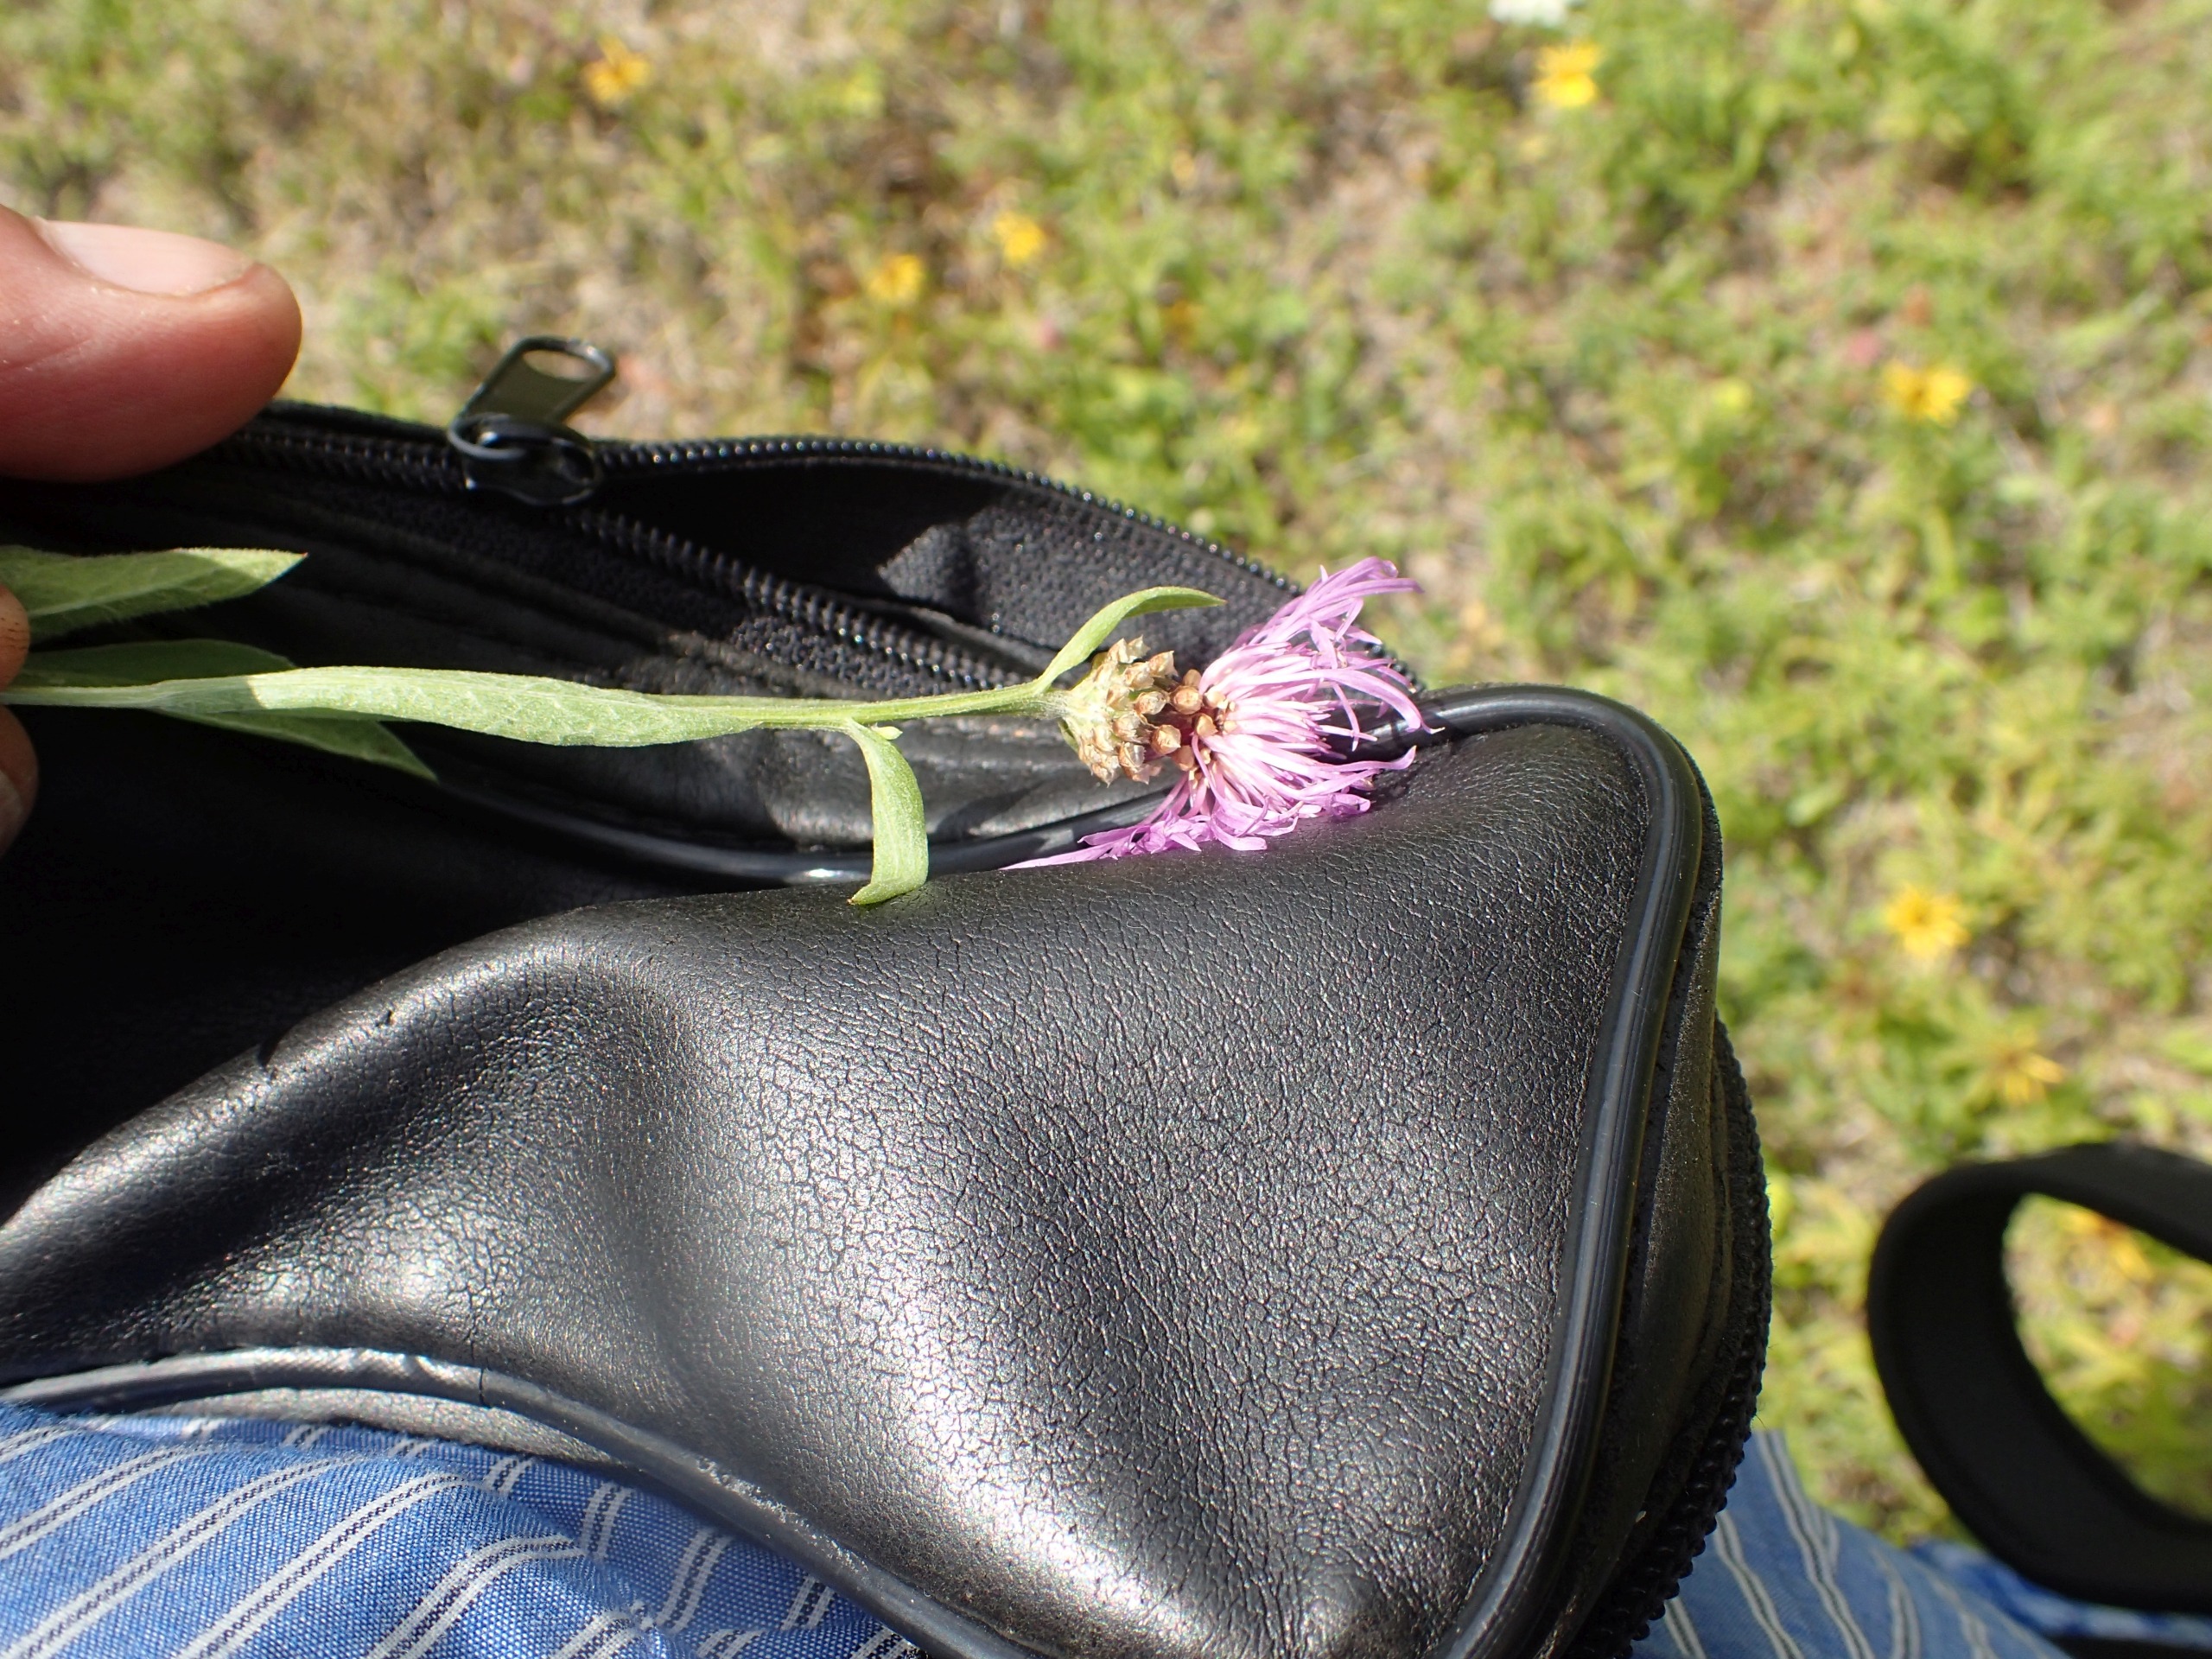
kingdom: Plantae
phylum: Tracheophyta
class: Magnoliopsida
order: Asterales
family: Asteraceae
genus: Centaurea
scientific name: Centaurea jacea
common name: Almindelig knopurt
